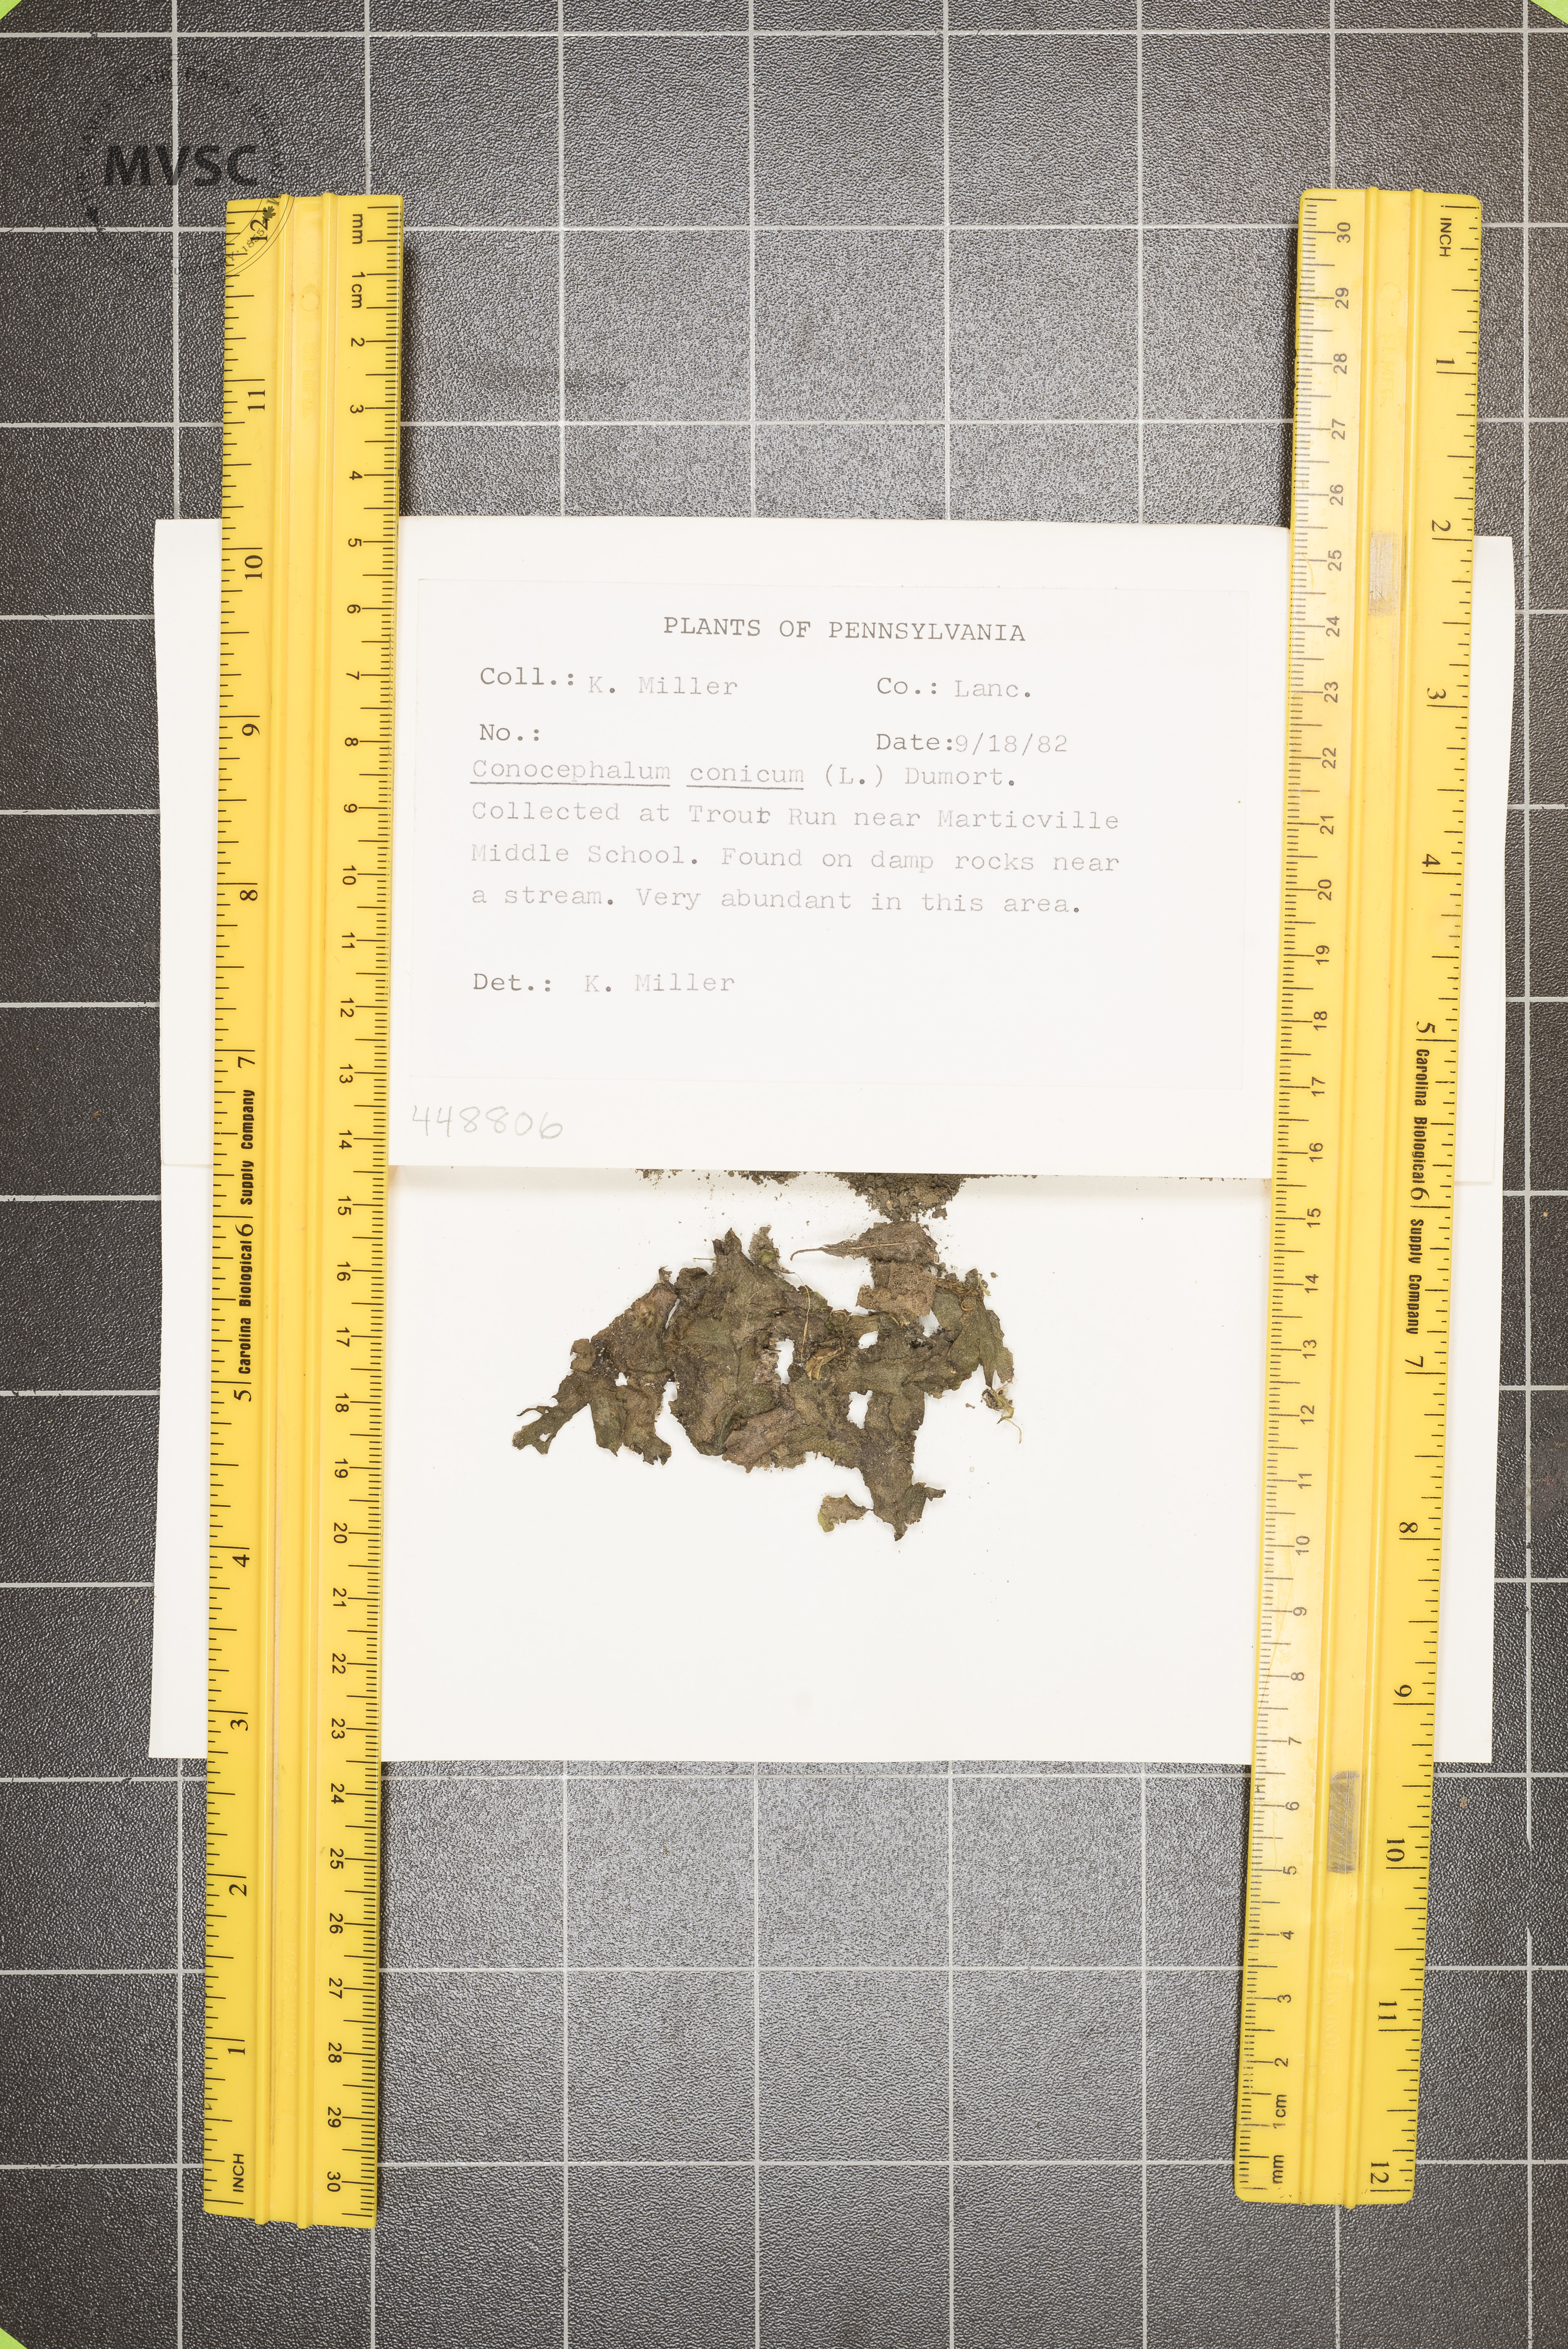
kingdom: Plantae
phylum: Marchantiophyta
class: Marchantiopsida
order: Marchantiales
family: Conocephalaceae
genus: Conocephalum
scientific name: Conocephalum conicum
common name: Great scented liverwort
